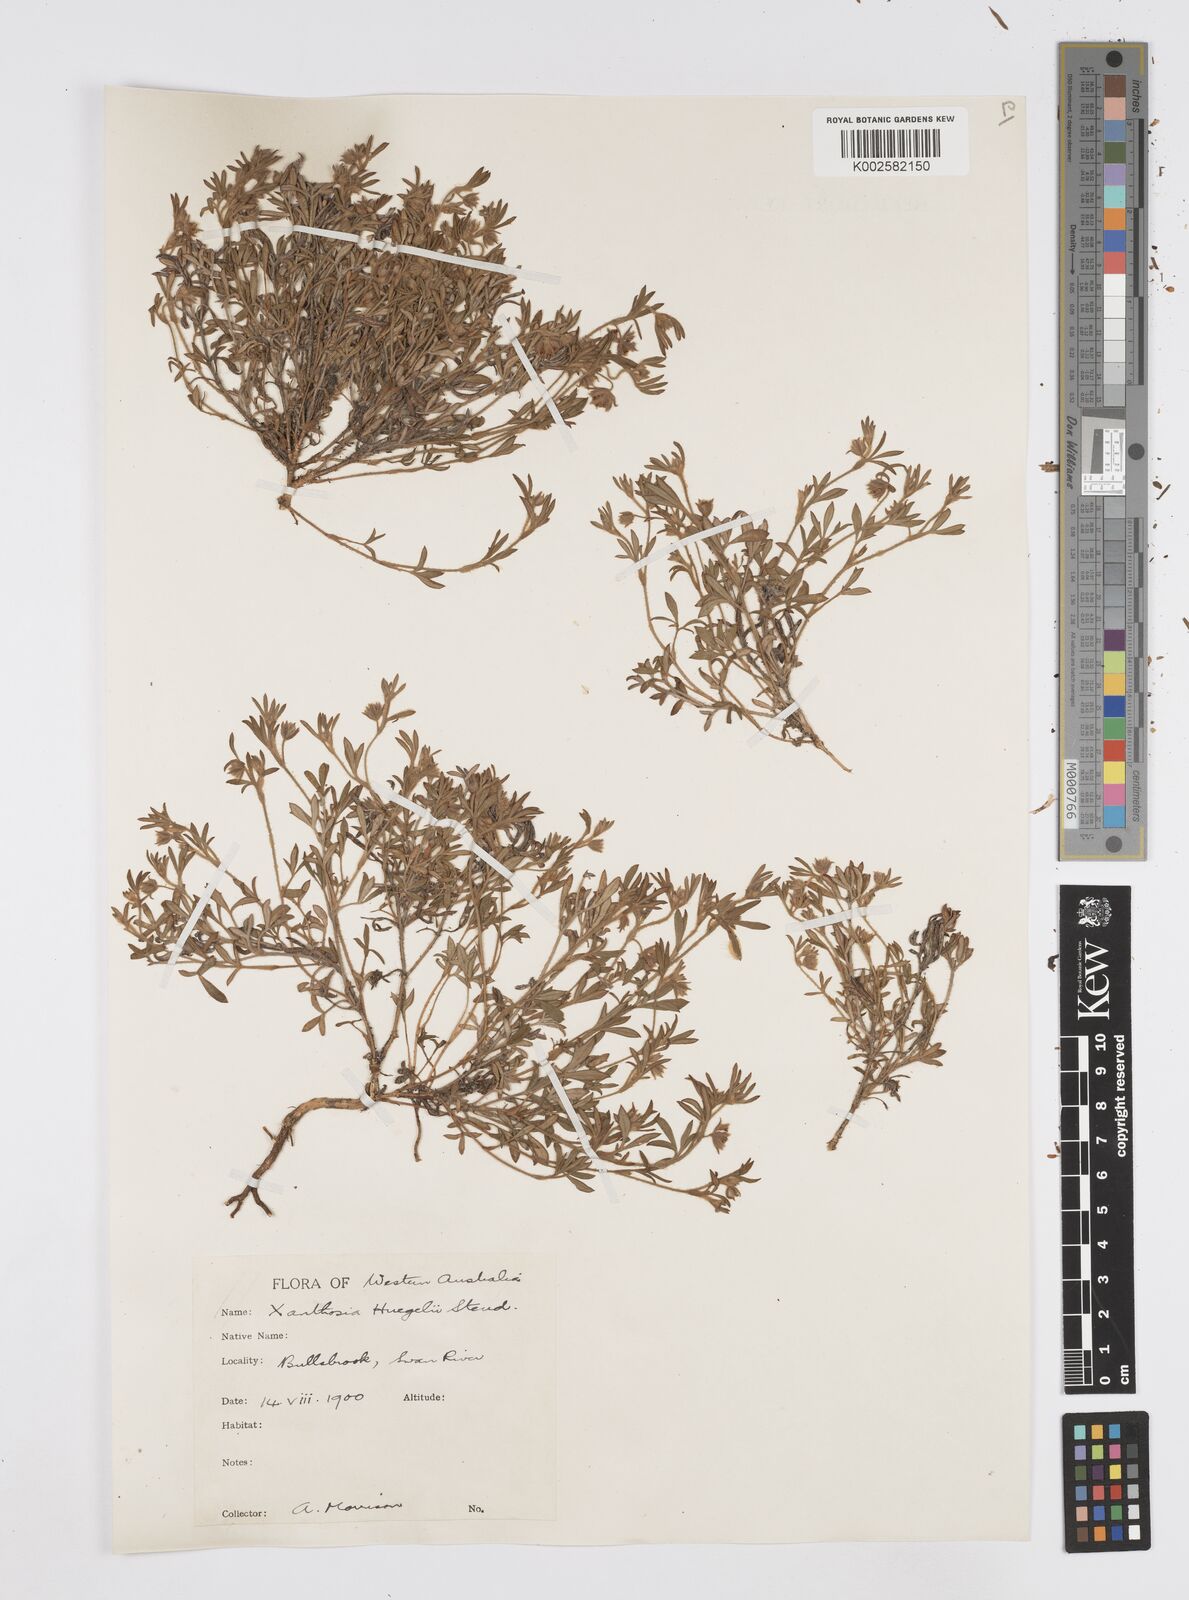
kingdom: Plantae
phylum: Tracheophyta
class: Magnoliopsida
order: Apiales
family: Apiaceae
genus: Xanthosia
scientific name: Xanthosia huegelii
